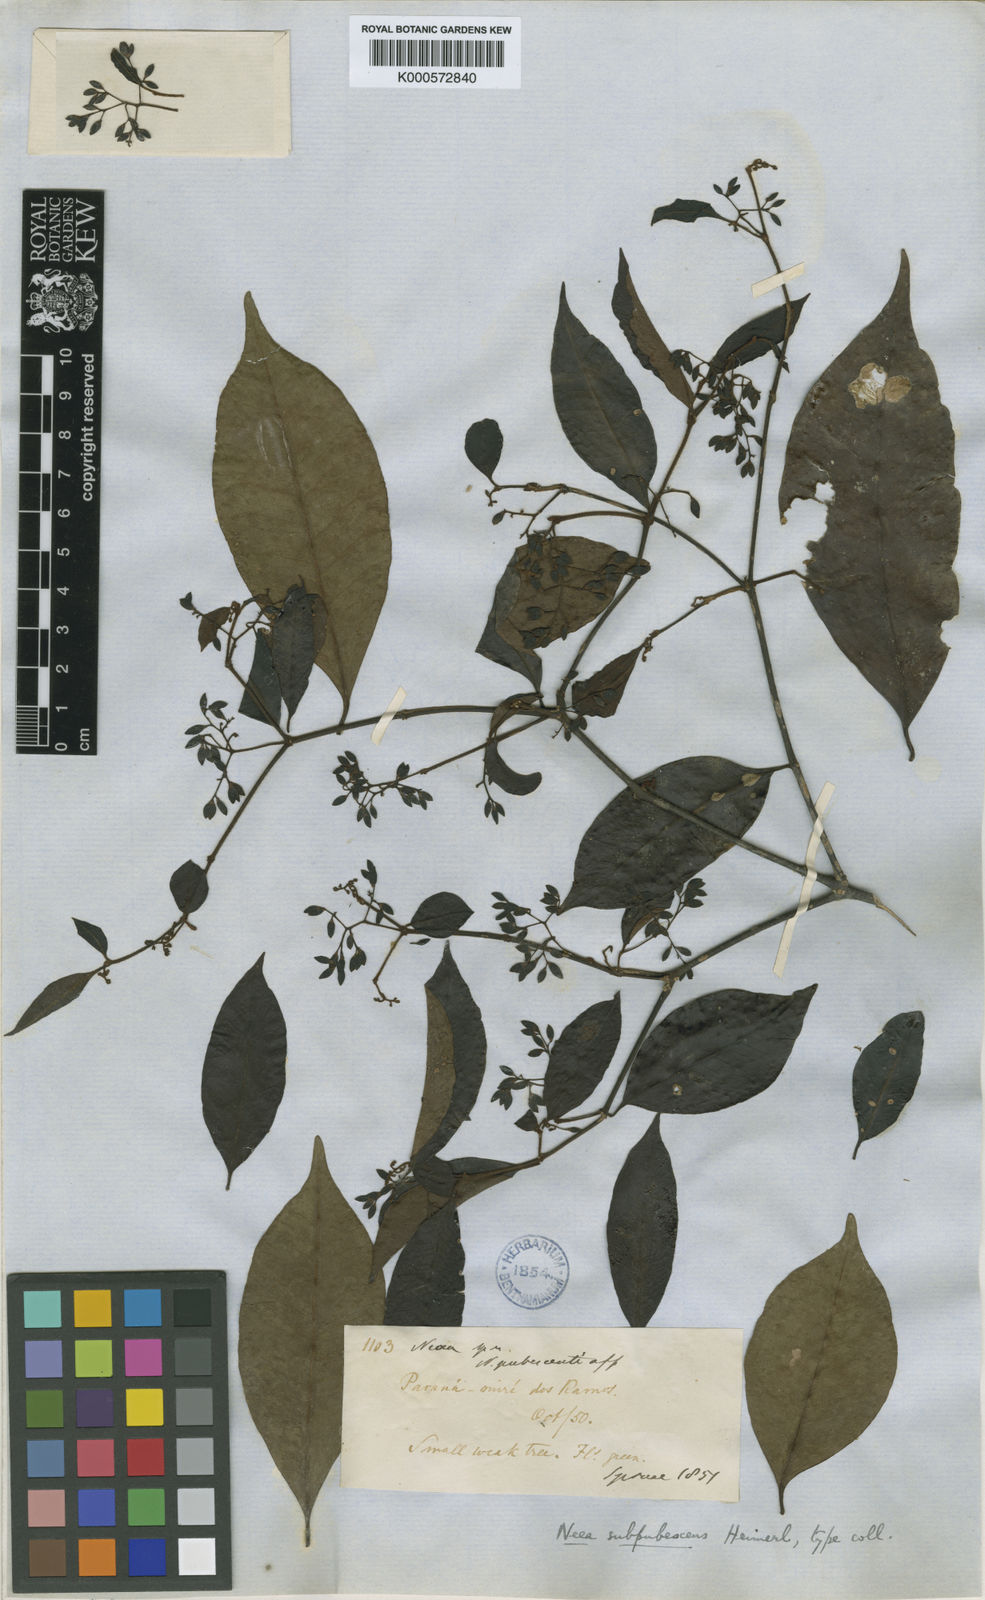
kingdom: Plantae
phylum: Tracheophyta
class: Magnoliopsida
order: Caryophyllales
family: Nyctaginaceae
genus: Neea
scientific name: Neea subpubescens
